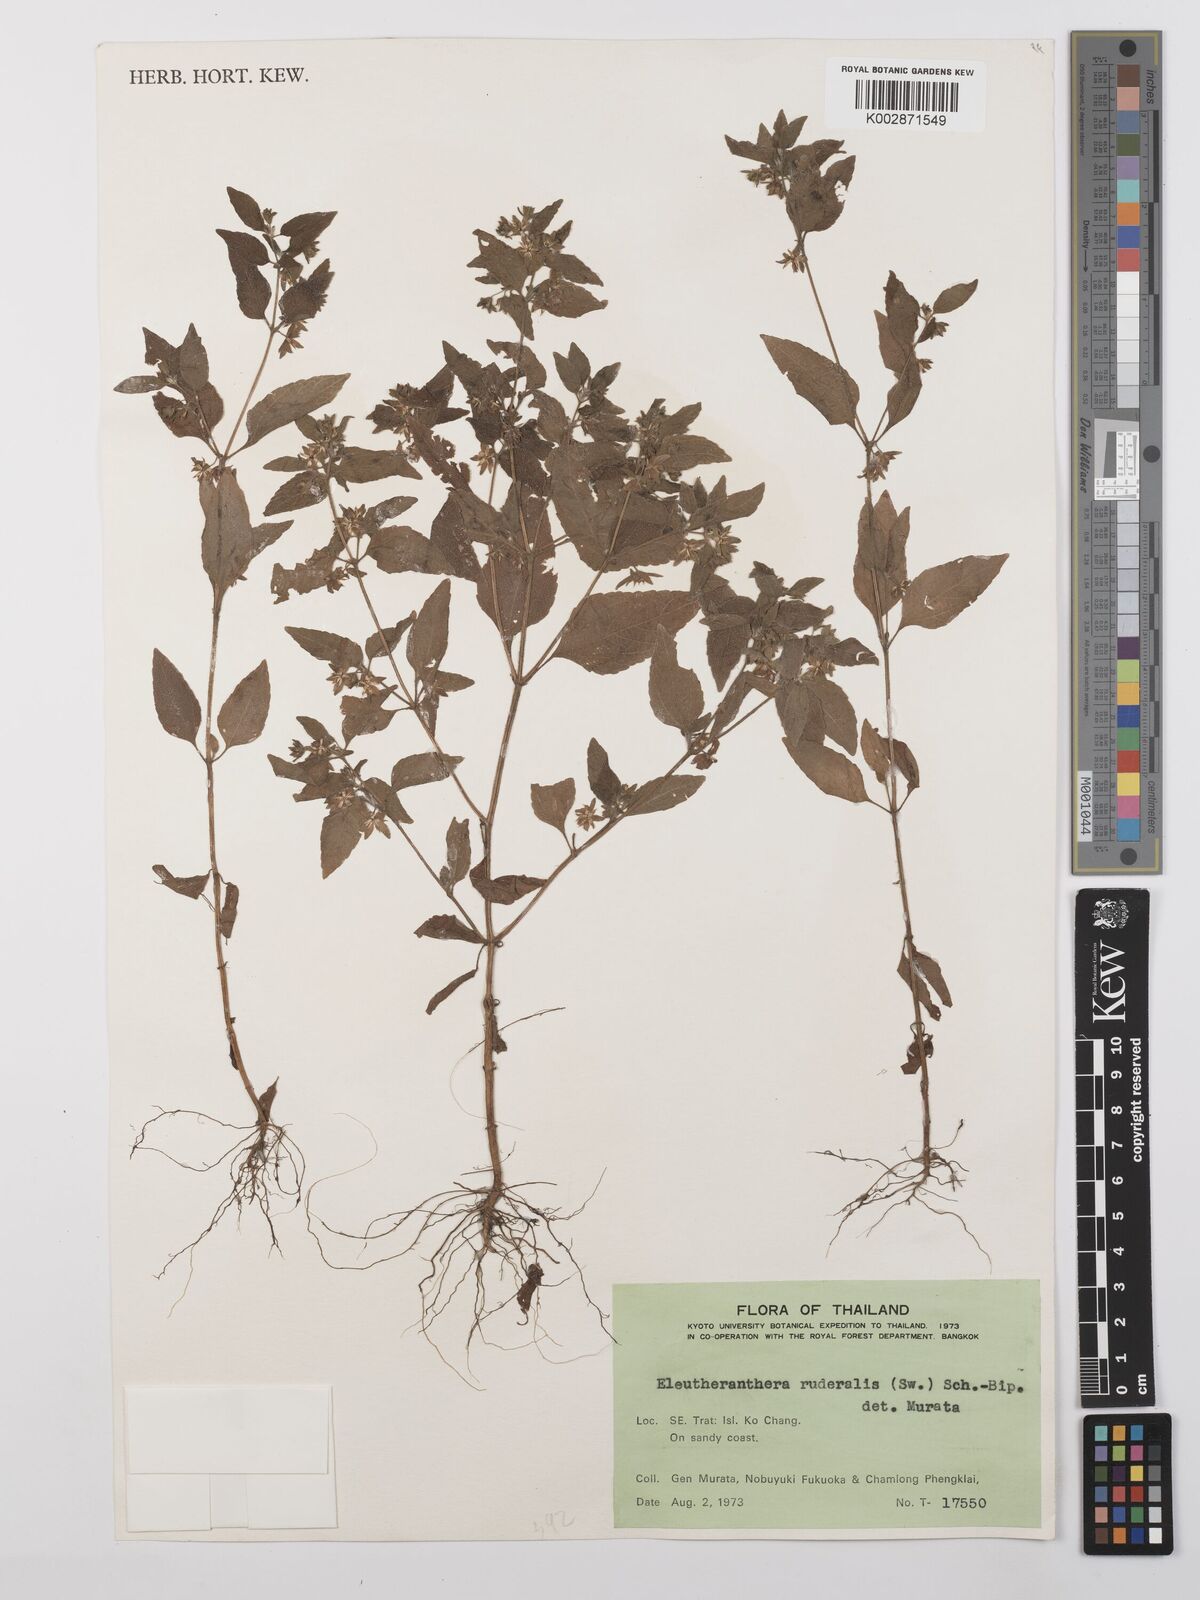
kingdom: Plantae
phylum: Tracheophyta
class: Magnoliopsida
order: Asterales
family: Asteraceae
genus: Eleutheranthera
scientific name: Eleutheranthera ruderalis
